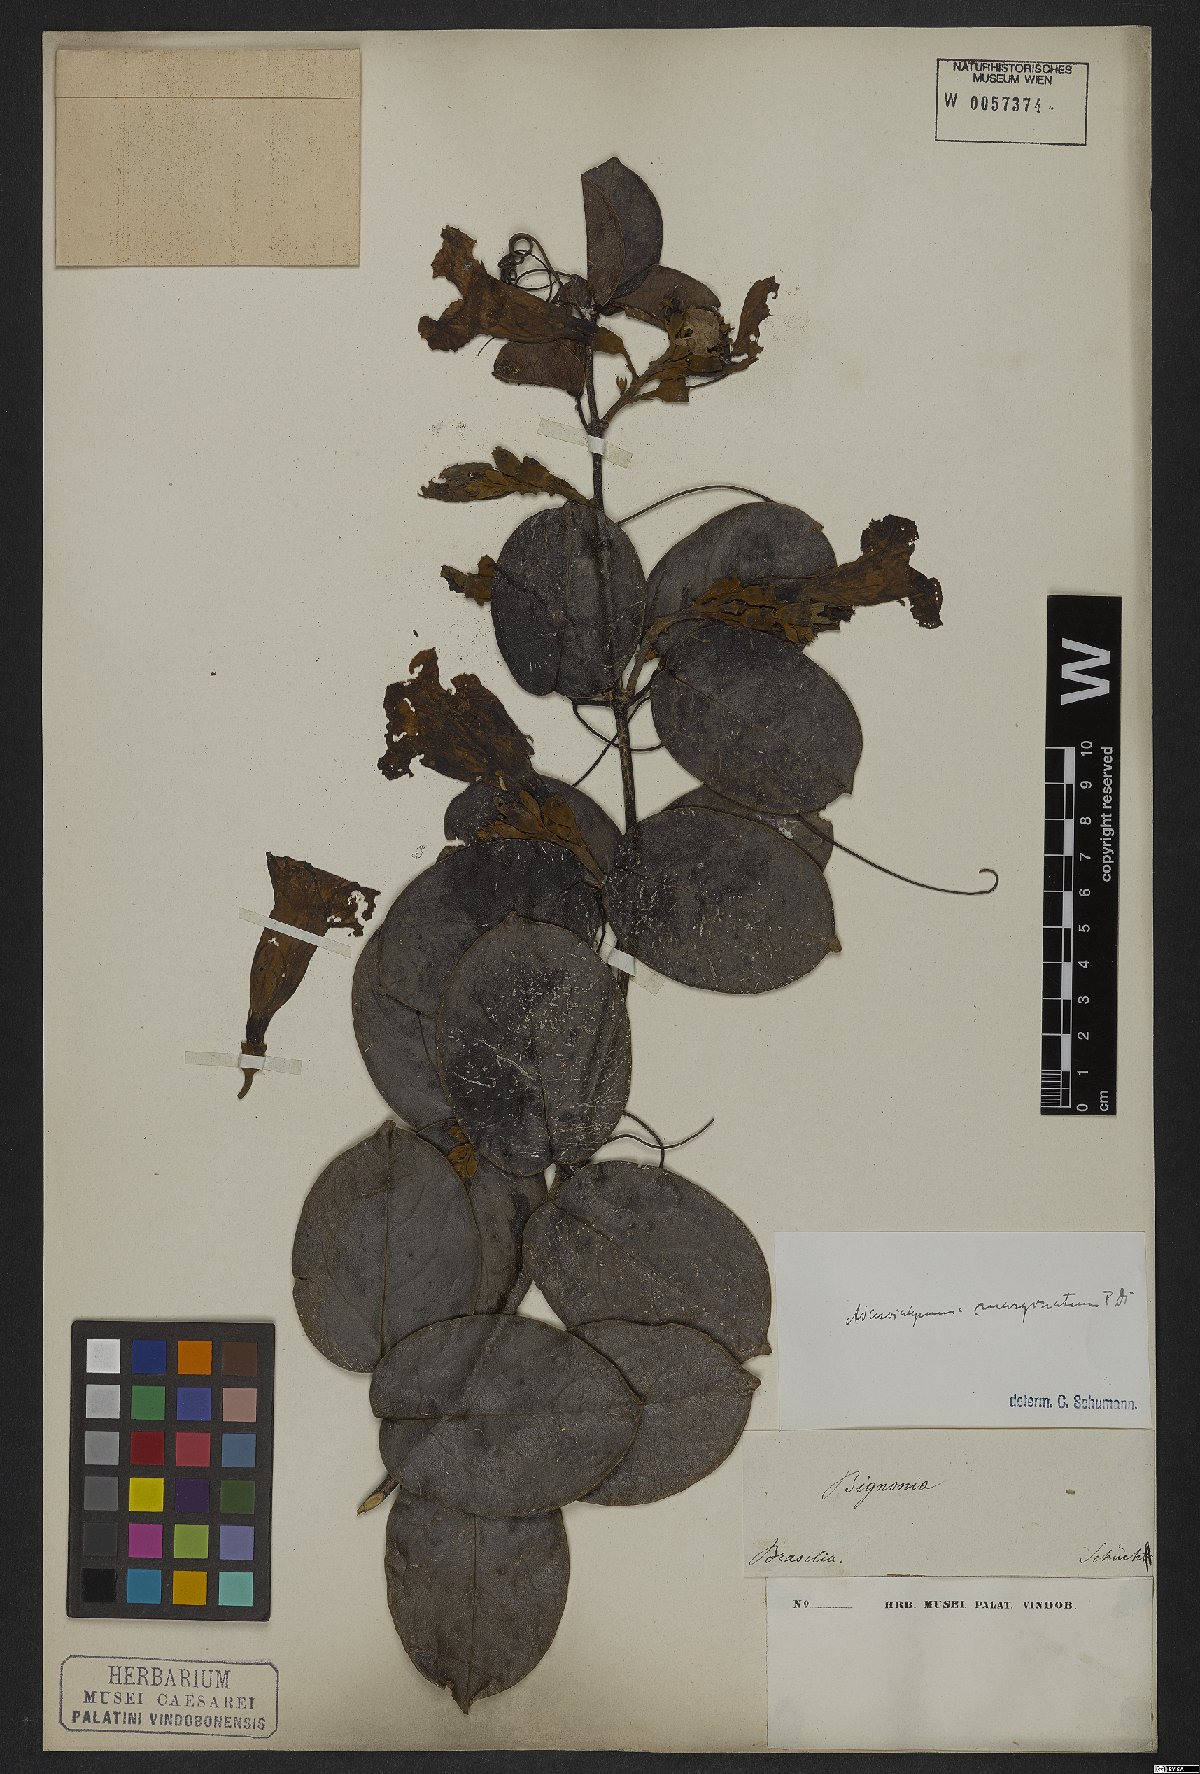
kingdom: Plantae
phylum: Tracheophyta
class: Magnoliopsida
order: Lamiales
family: Bignoniaceae
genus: Adenocalymma
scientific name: Adenocalymma marginatum
